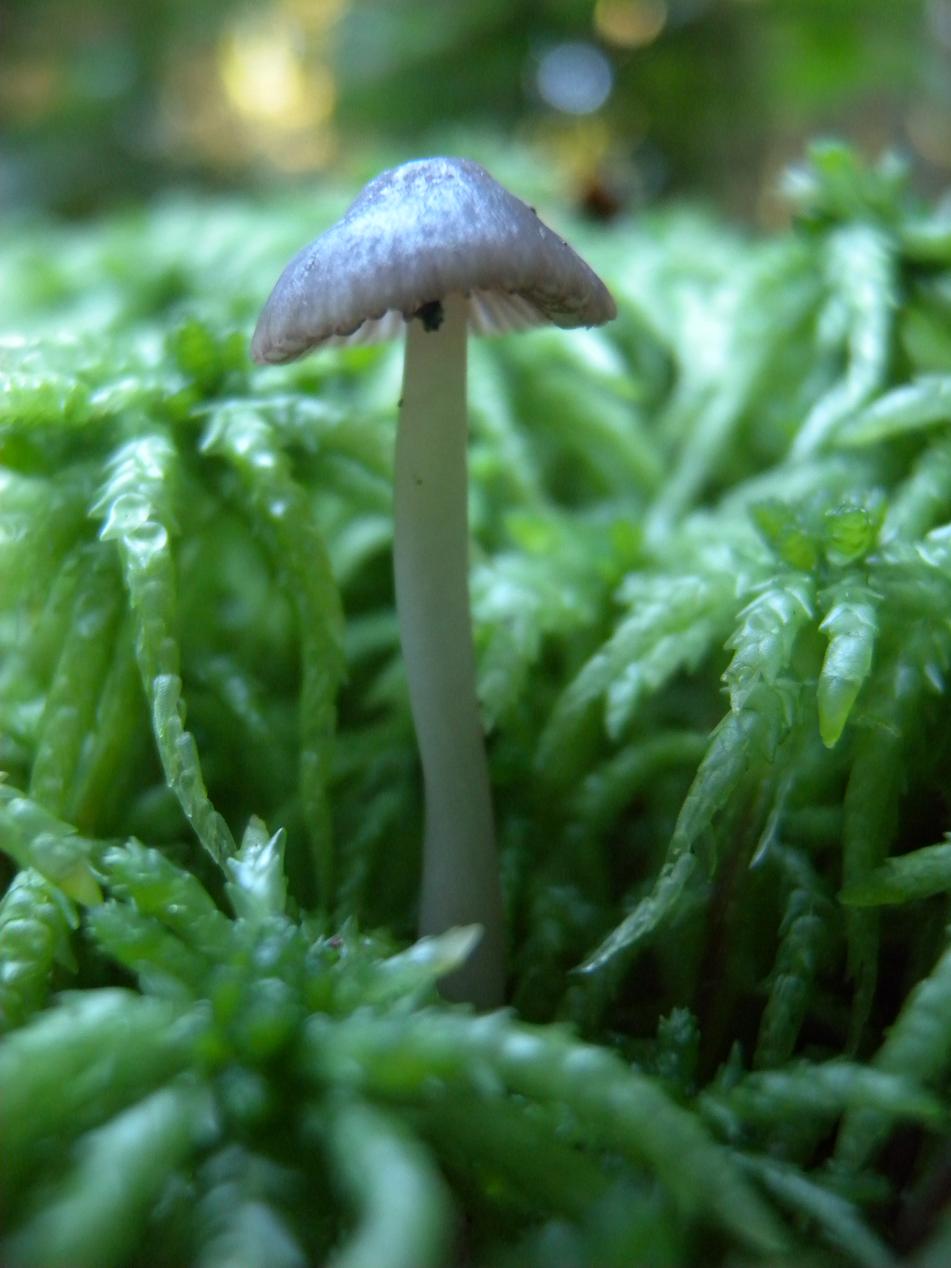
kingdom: Fungi
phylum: Basidiomycota
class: Agaricomycetes
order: Agaricales
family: Mycenaceae
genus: Mycena
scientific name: Mycena rubromarginata
